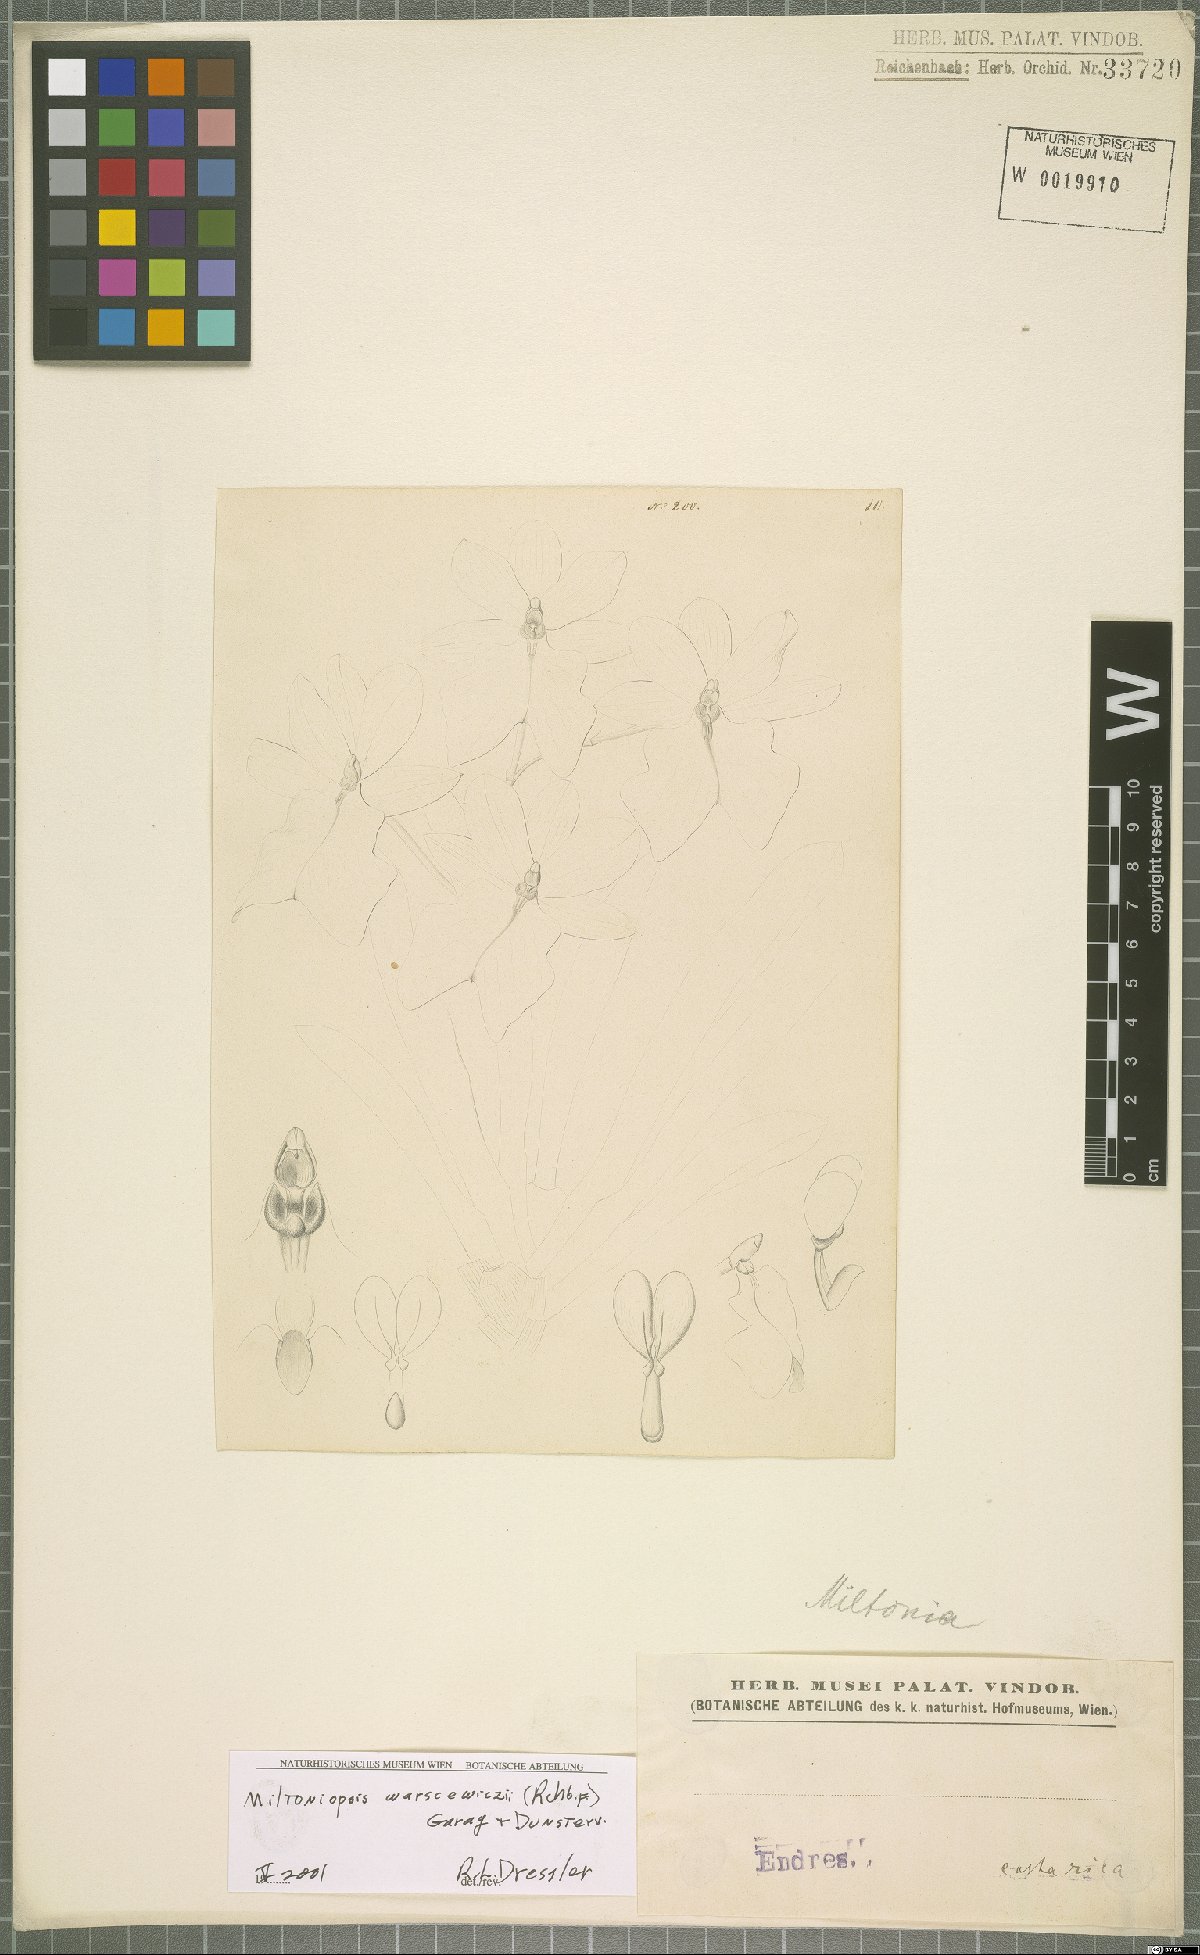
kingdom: Plantae
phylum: Tracheophyta
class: Liliopsida
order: Asparagales
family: Orchidaceae
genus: Miltoniopsis
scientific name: Miltoniopsis warszewiczii
